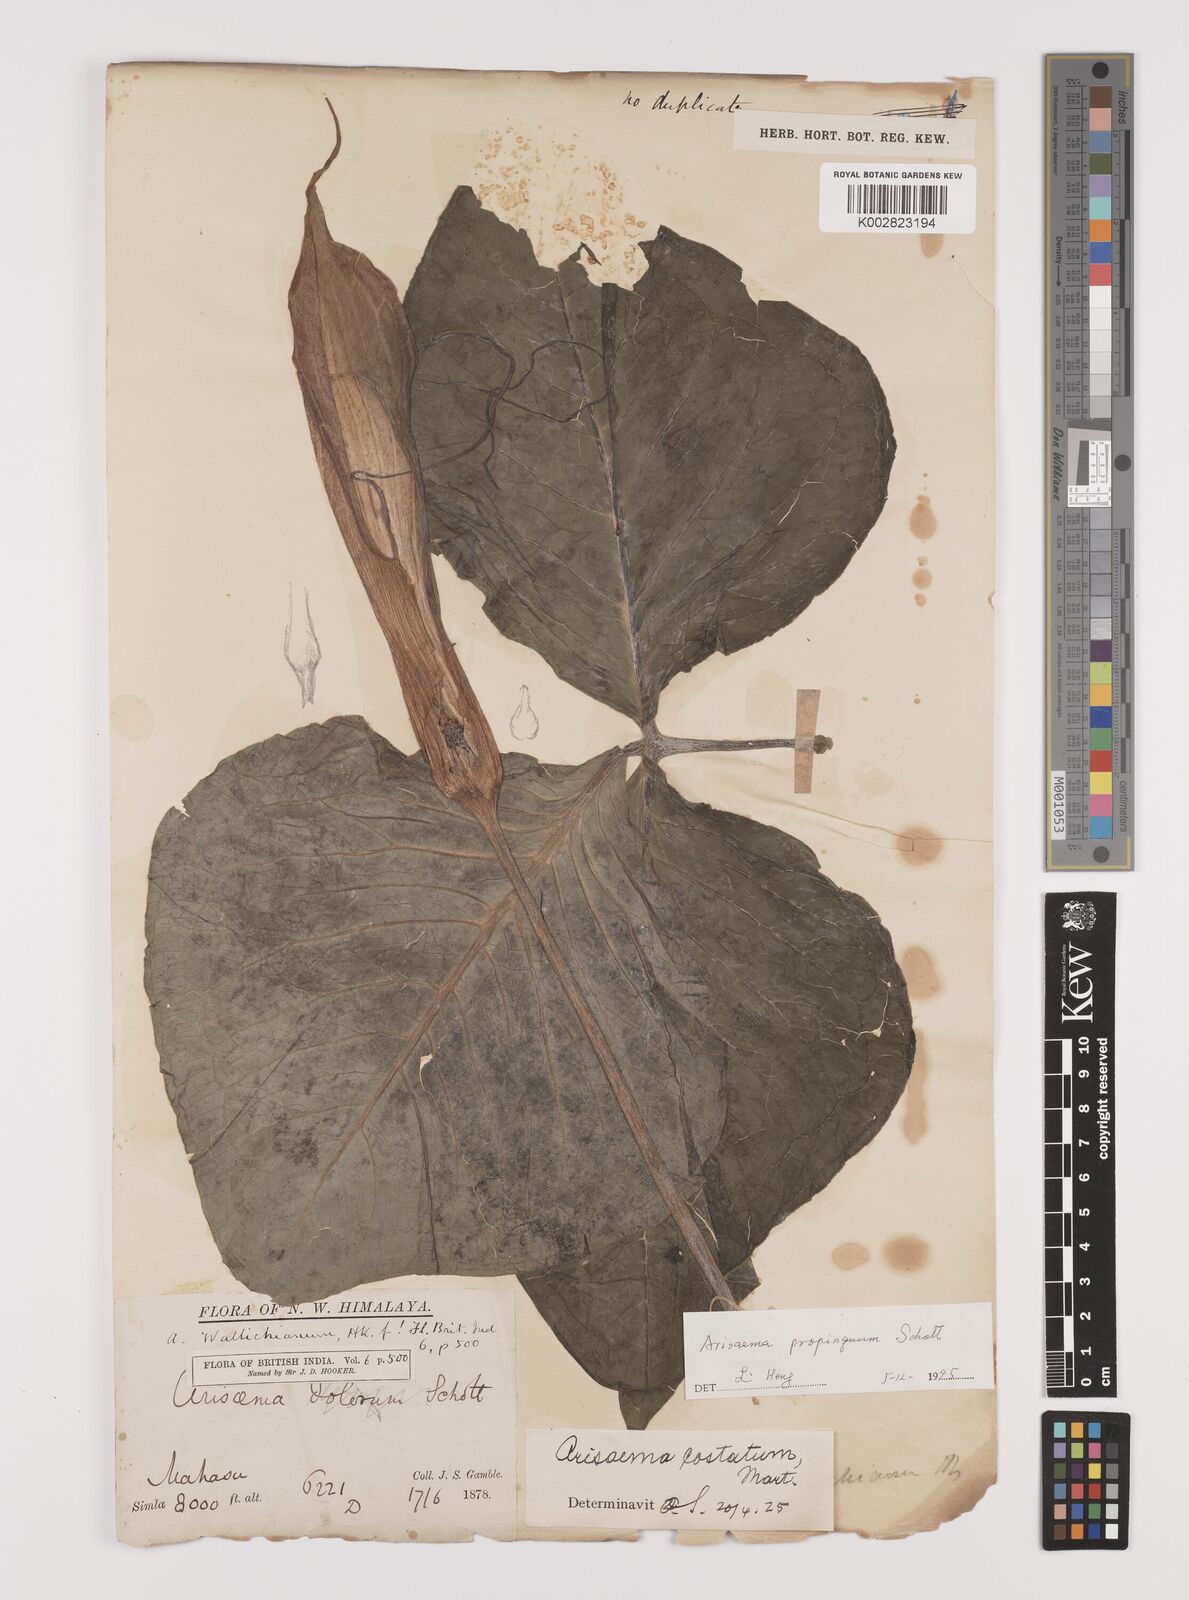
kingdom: Plantae
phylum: Tracheophyta
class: Liliopsida
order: Alismatales
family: Araceae
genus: Arisaema
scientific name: Arisaema propinquum
